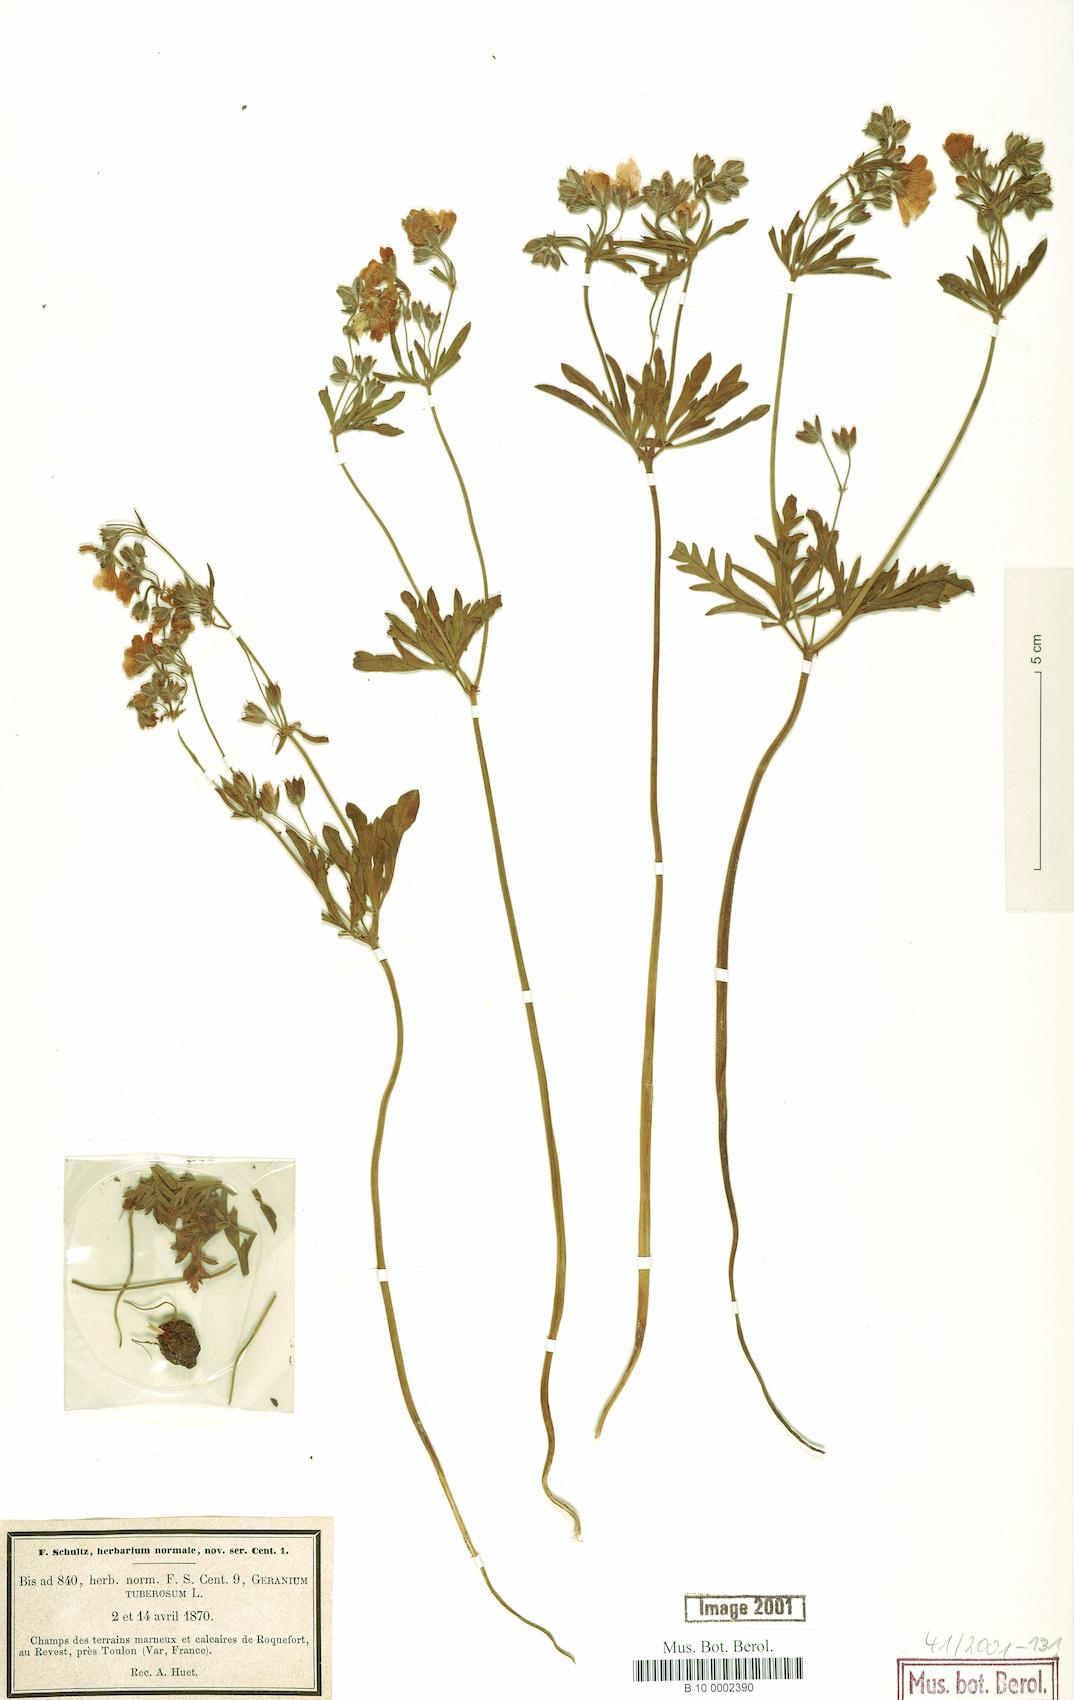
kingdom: Plantae
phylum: Tracheophyta
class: Magnoliopsida
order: Geraniales
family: Geraniaceae
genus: Geranium
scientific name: Geranium tuberosum
